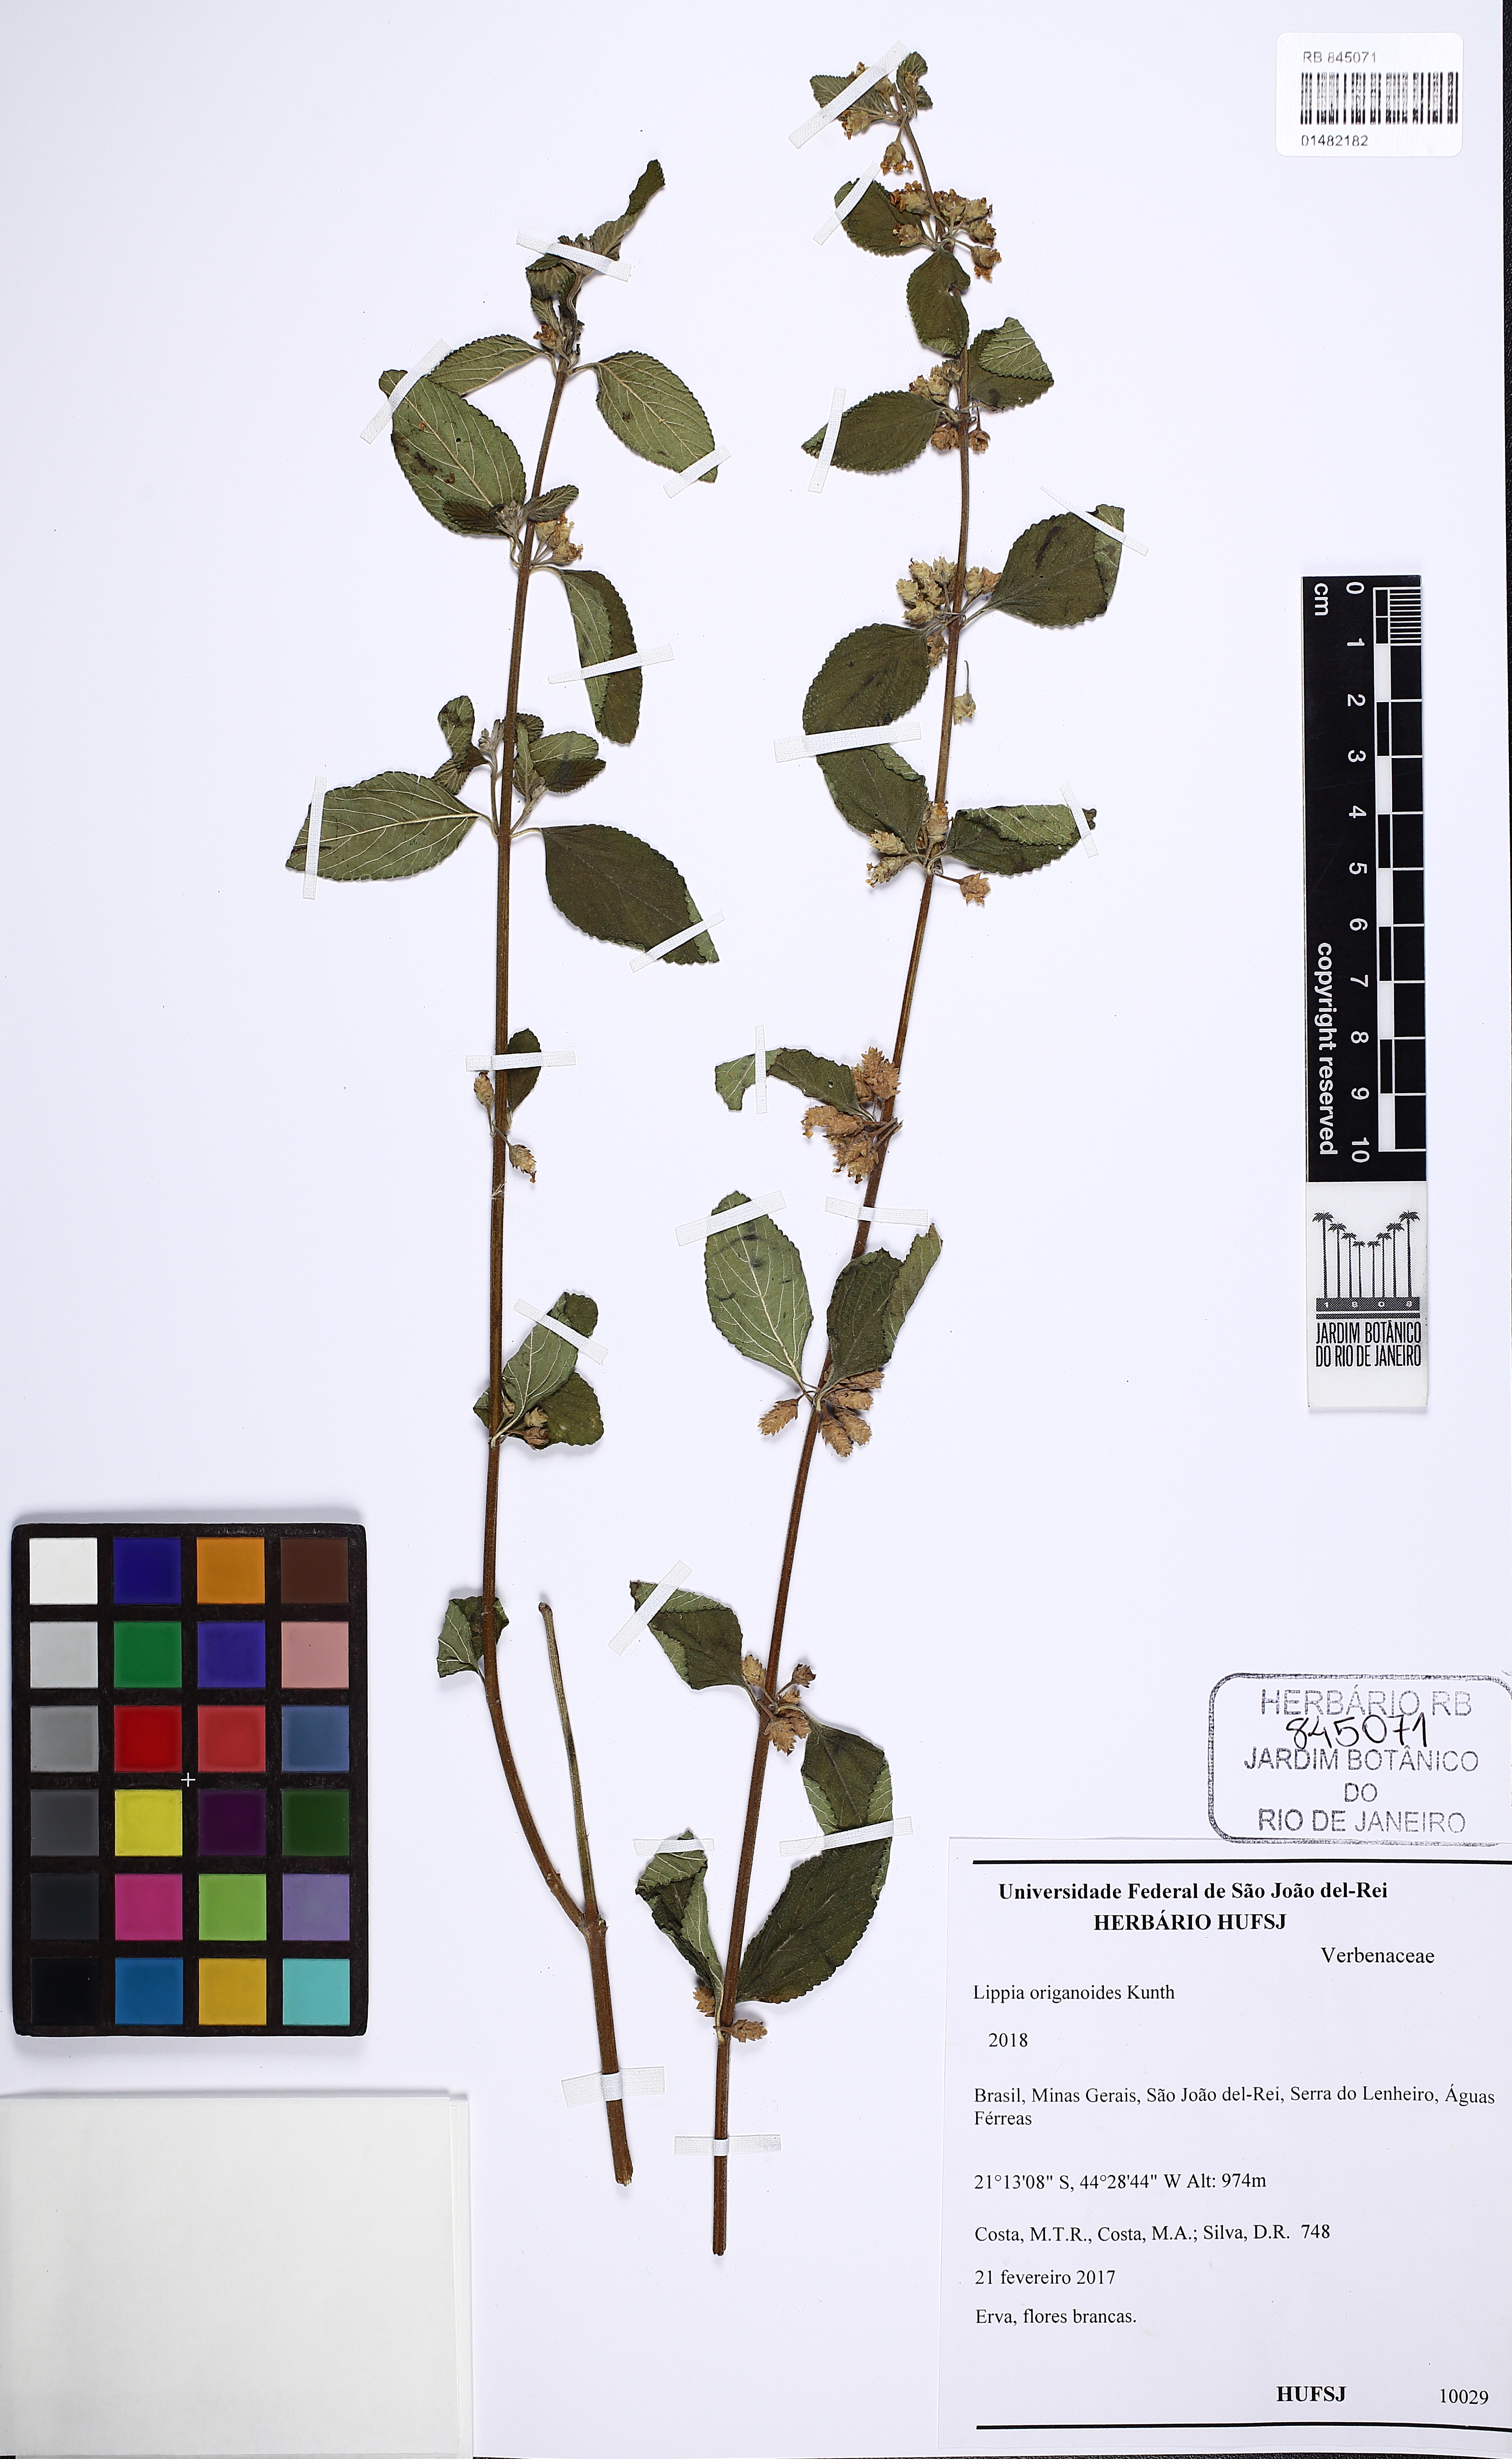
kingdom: Plantae
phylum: Tracheophyta
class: Magnoliopsida
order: Lamiales
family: Verbenaceae
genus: Lippia
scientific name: Lippia origanoides
